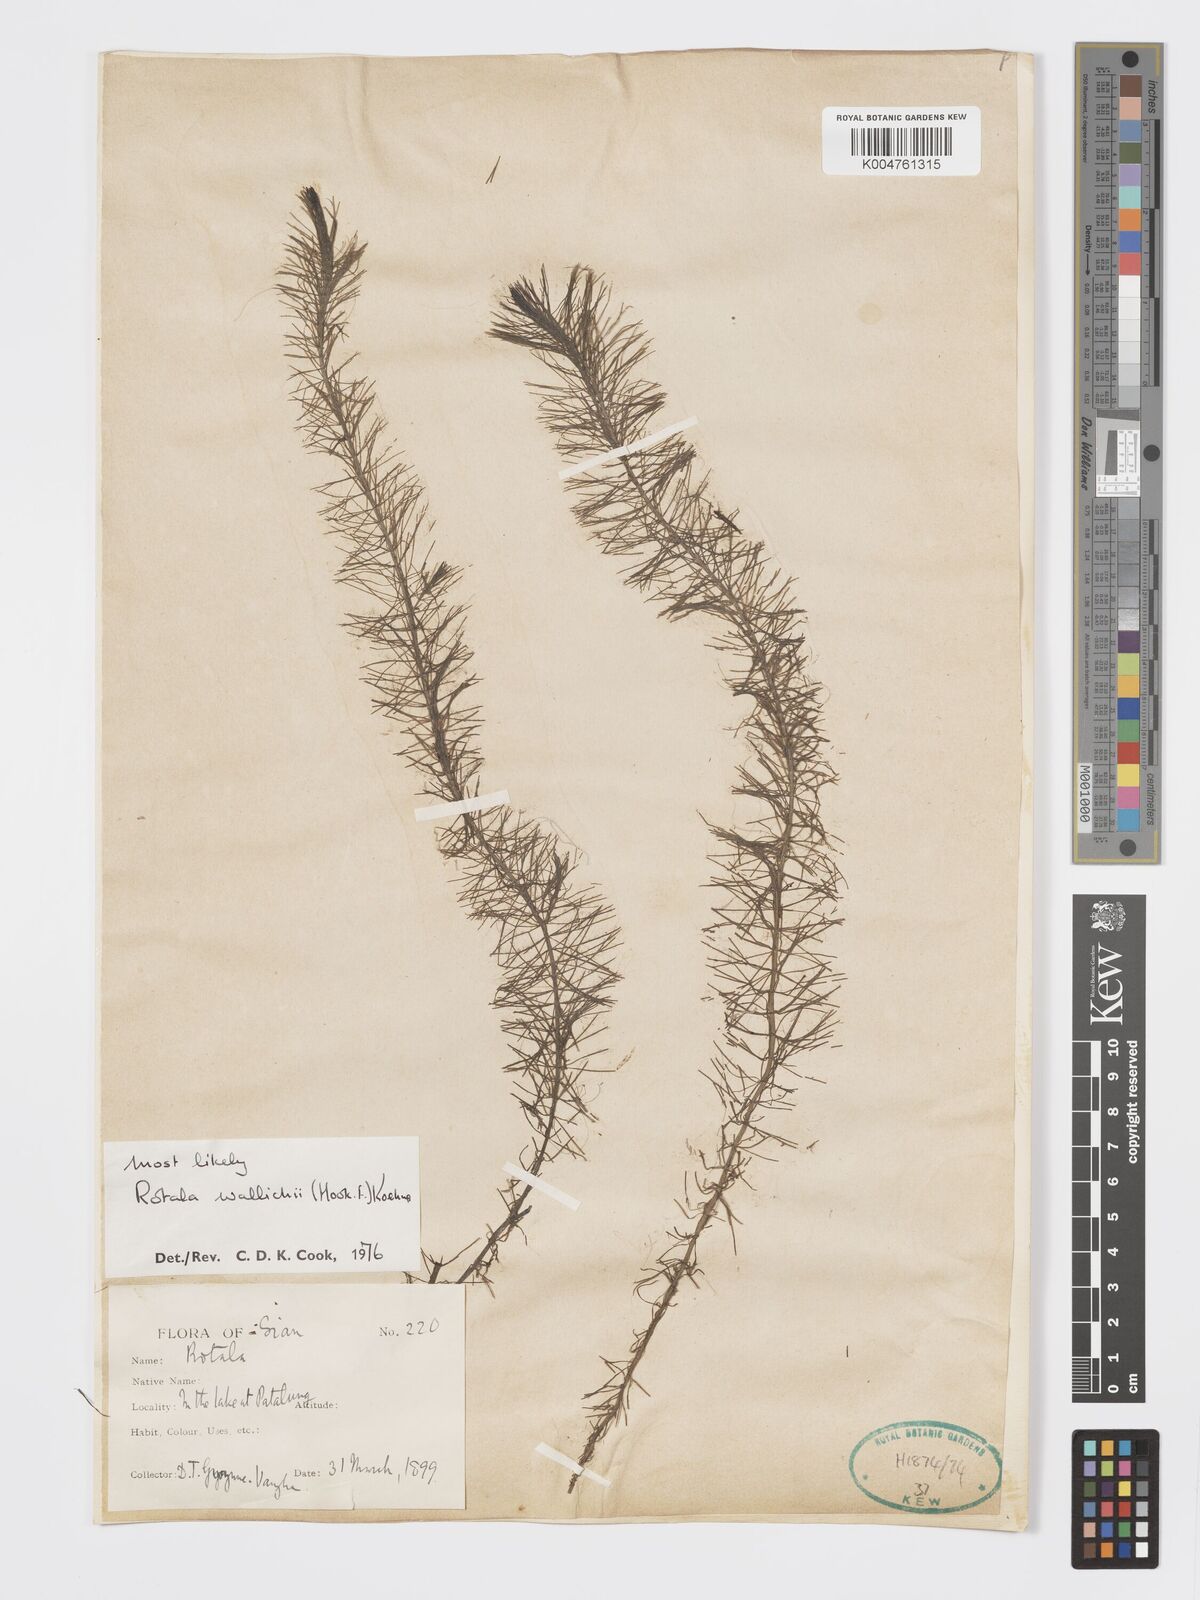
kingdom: Plantae
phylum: Tracheophyta
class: Magnoliopsida
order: Myrtales
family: Lythraceae
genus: Rotala
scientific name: Rotala wallichii
